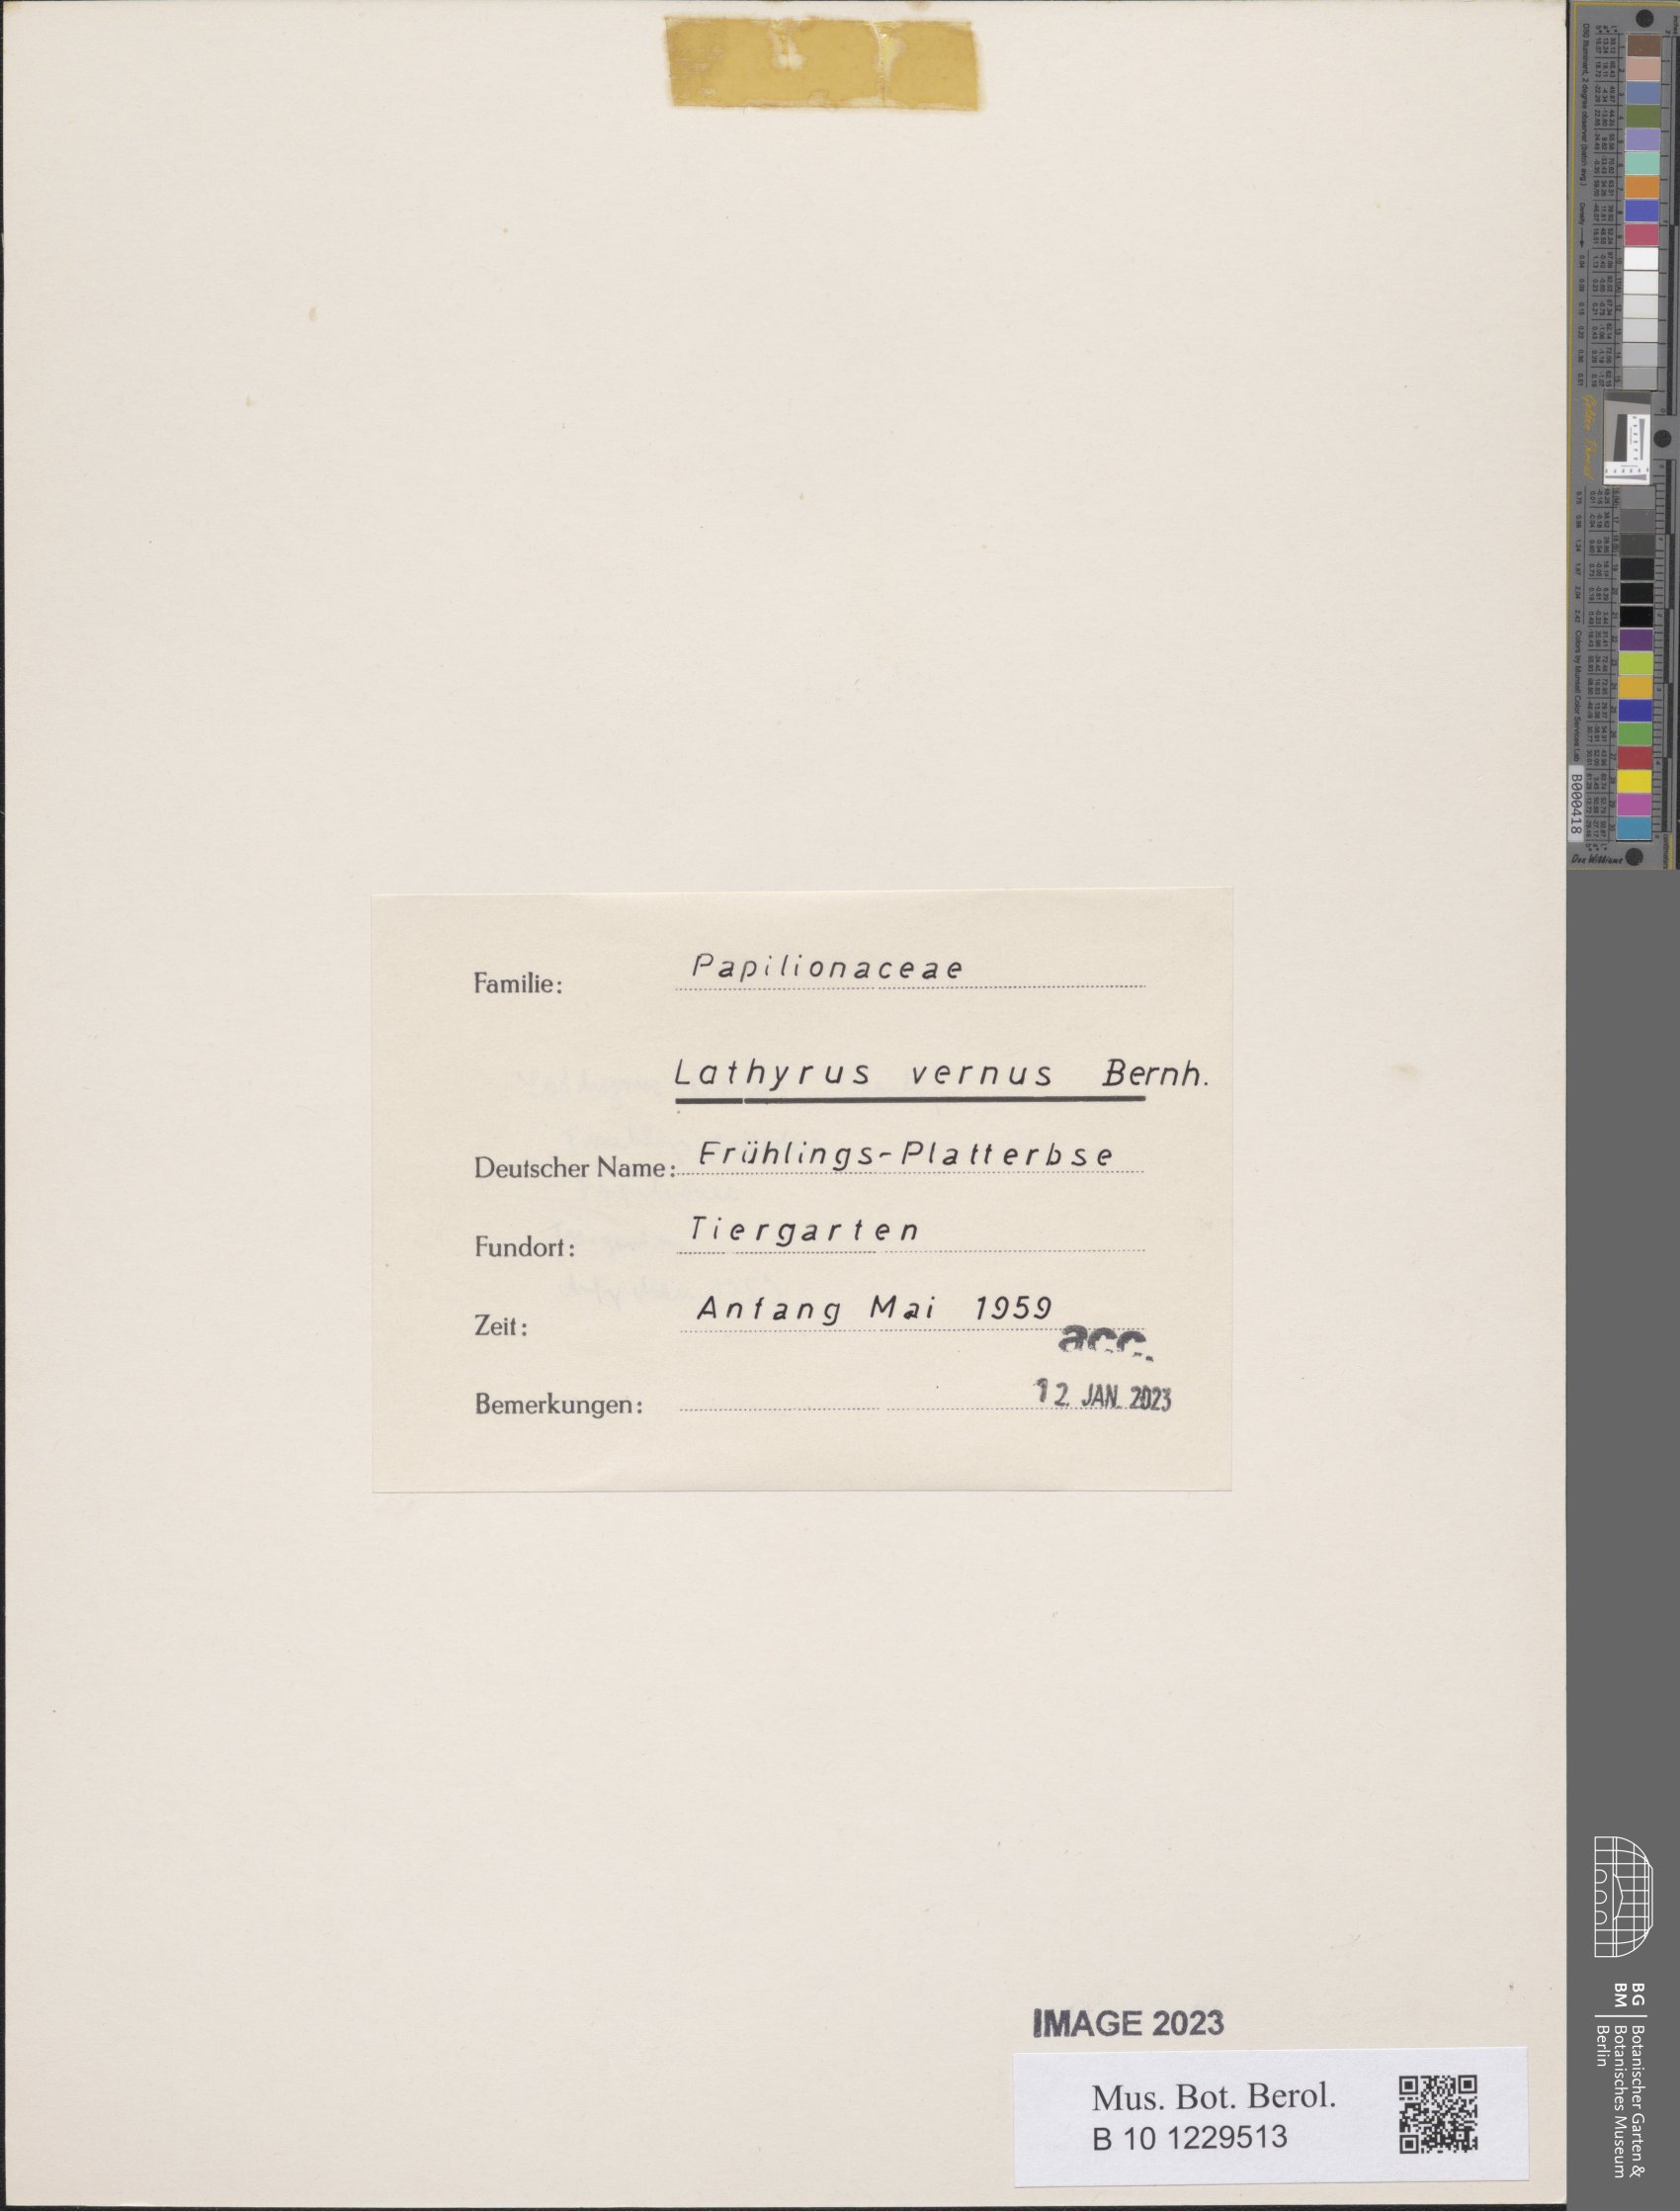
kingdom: Plantae
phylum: Tracheophyta
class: Magnoliopsida
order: Fabales
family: Fabaceae
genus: Lathyrus
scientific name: Lathyrus vernus
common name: Spring pea
